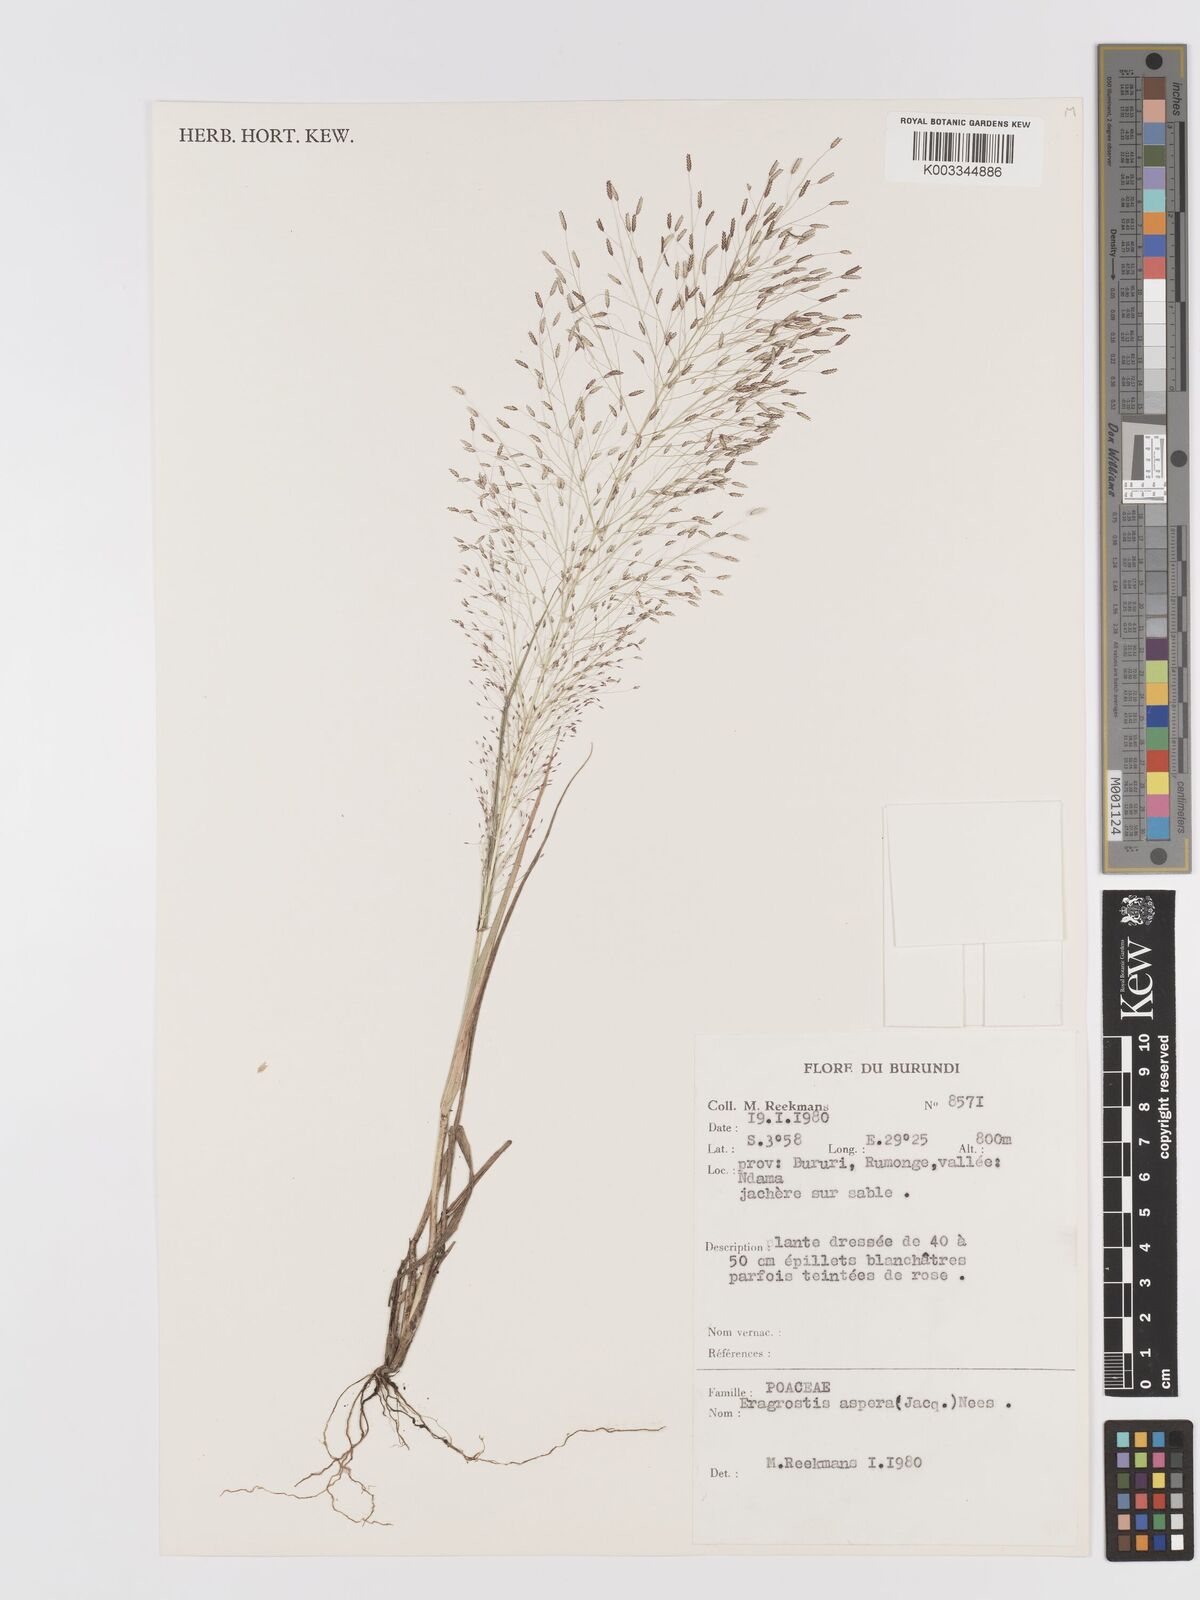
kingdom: Plantae
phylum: Tracheophyta
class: Liliopsida
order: Poales
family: Poaceae
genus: Eragrostis
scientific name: Eragrostis aspera
